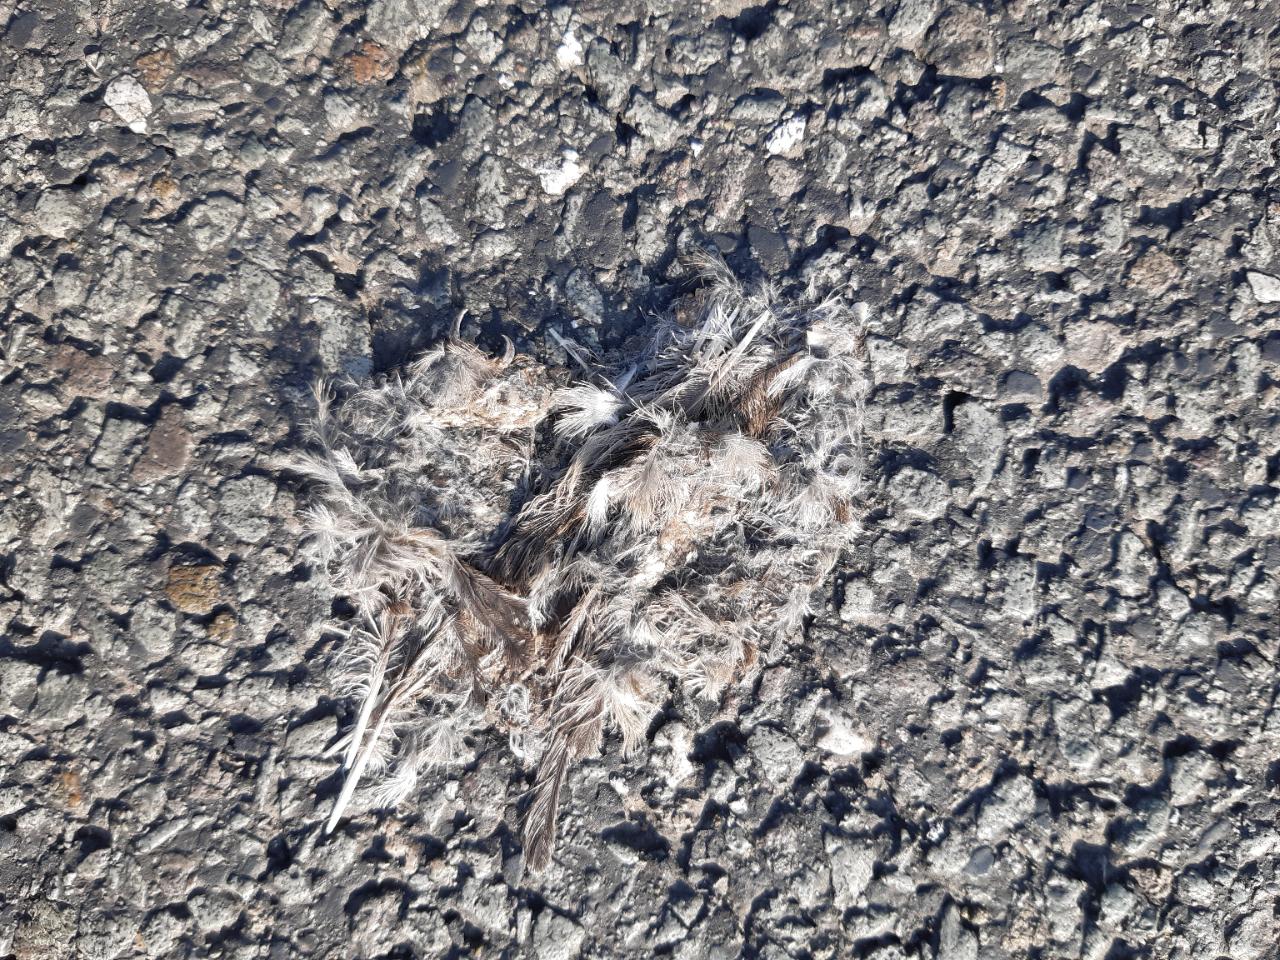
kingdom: Animalia
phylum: Chordata
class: Aves
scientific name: Aves
